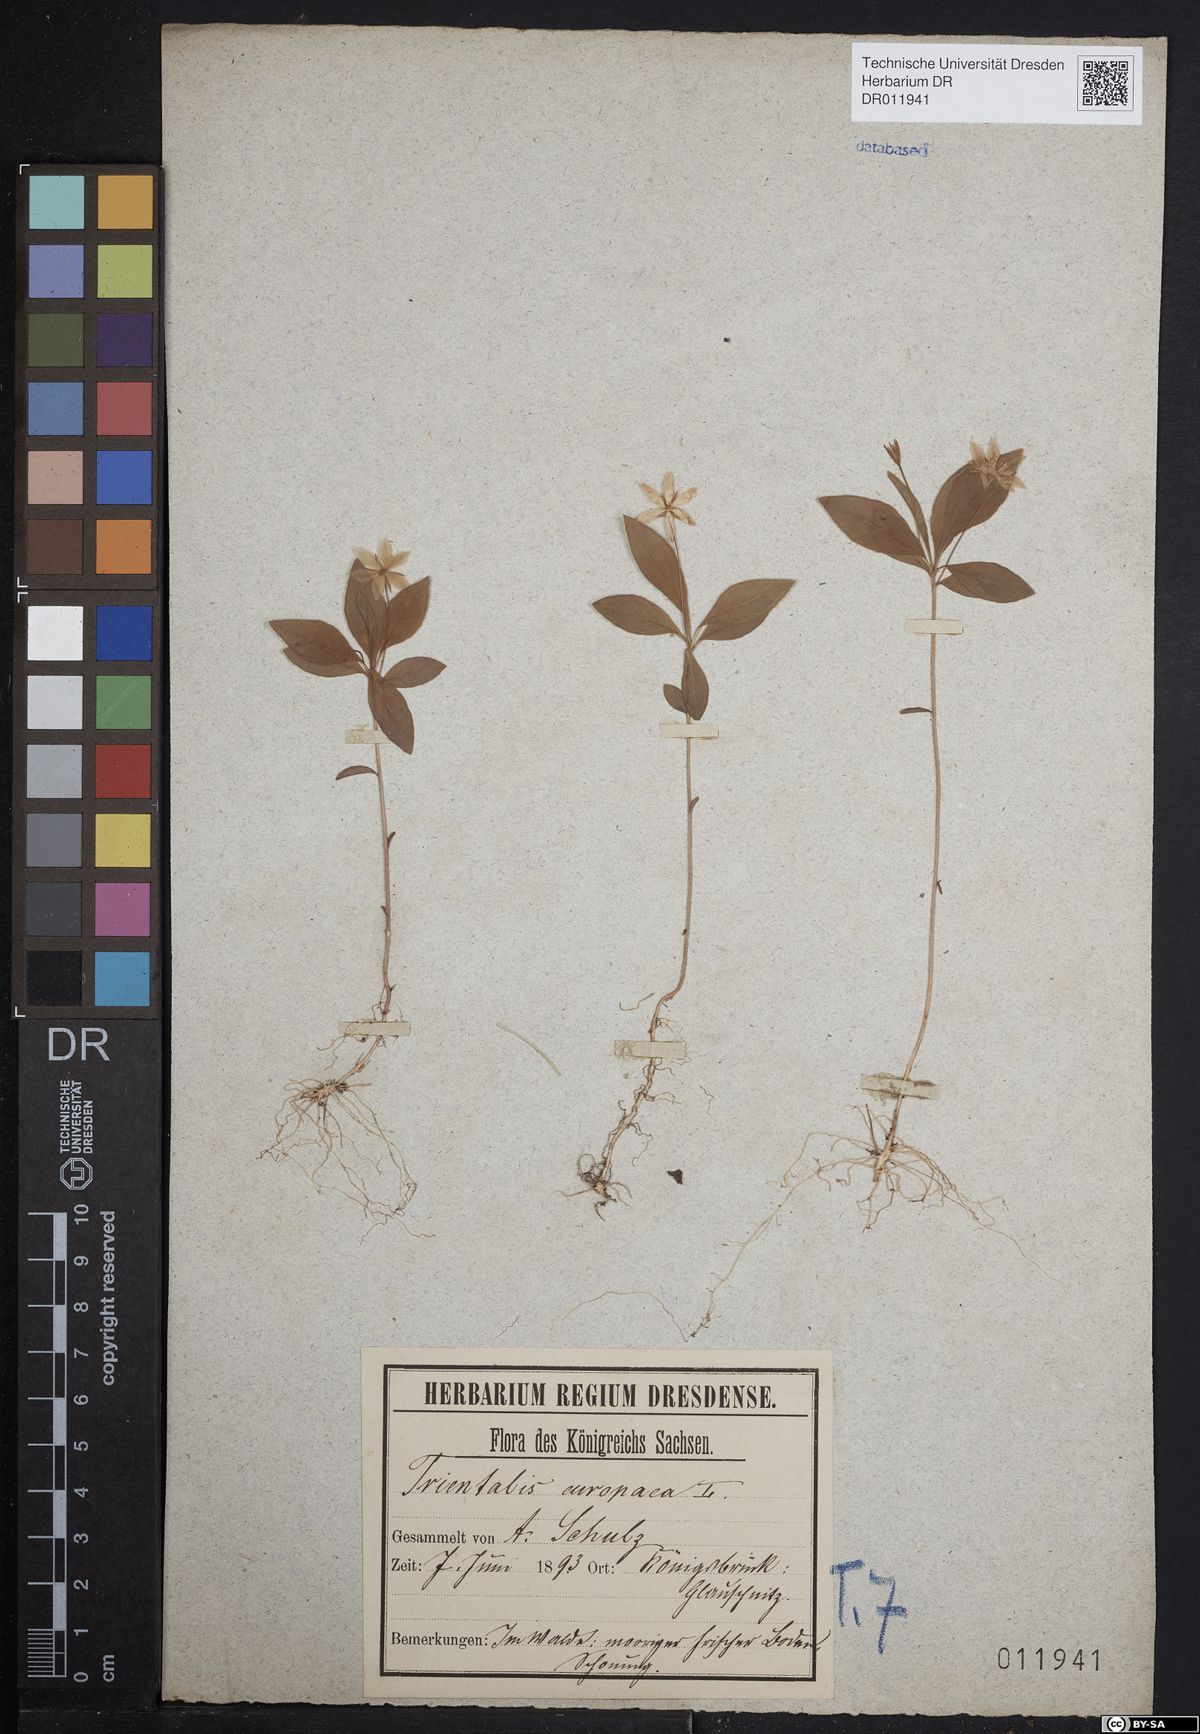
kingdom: Plantae
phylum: Tracheophyta
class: Magnoliopsida
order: Ericales
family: Primulaceae
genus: Lysimachia
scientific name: Lysimachia europaea
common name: Arctic starflower
